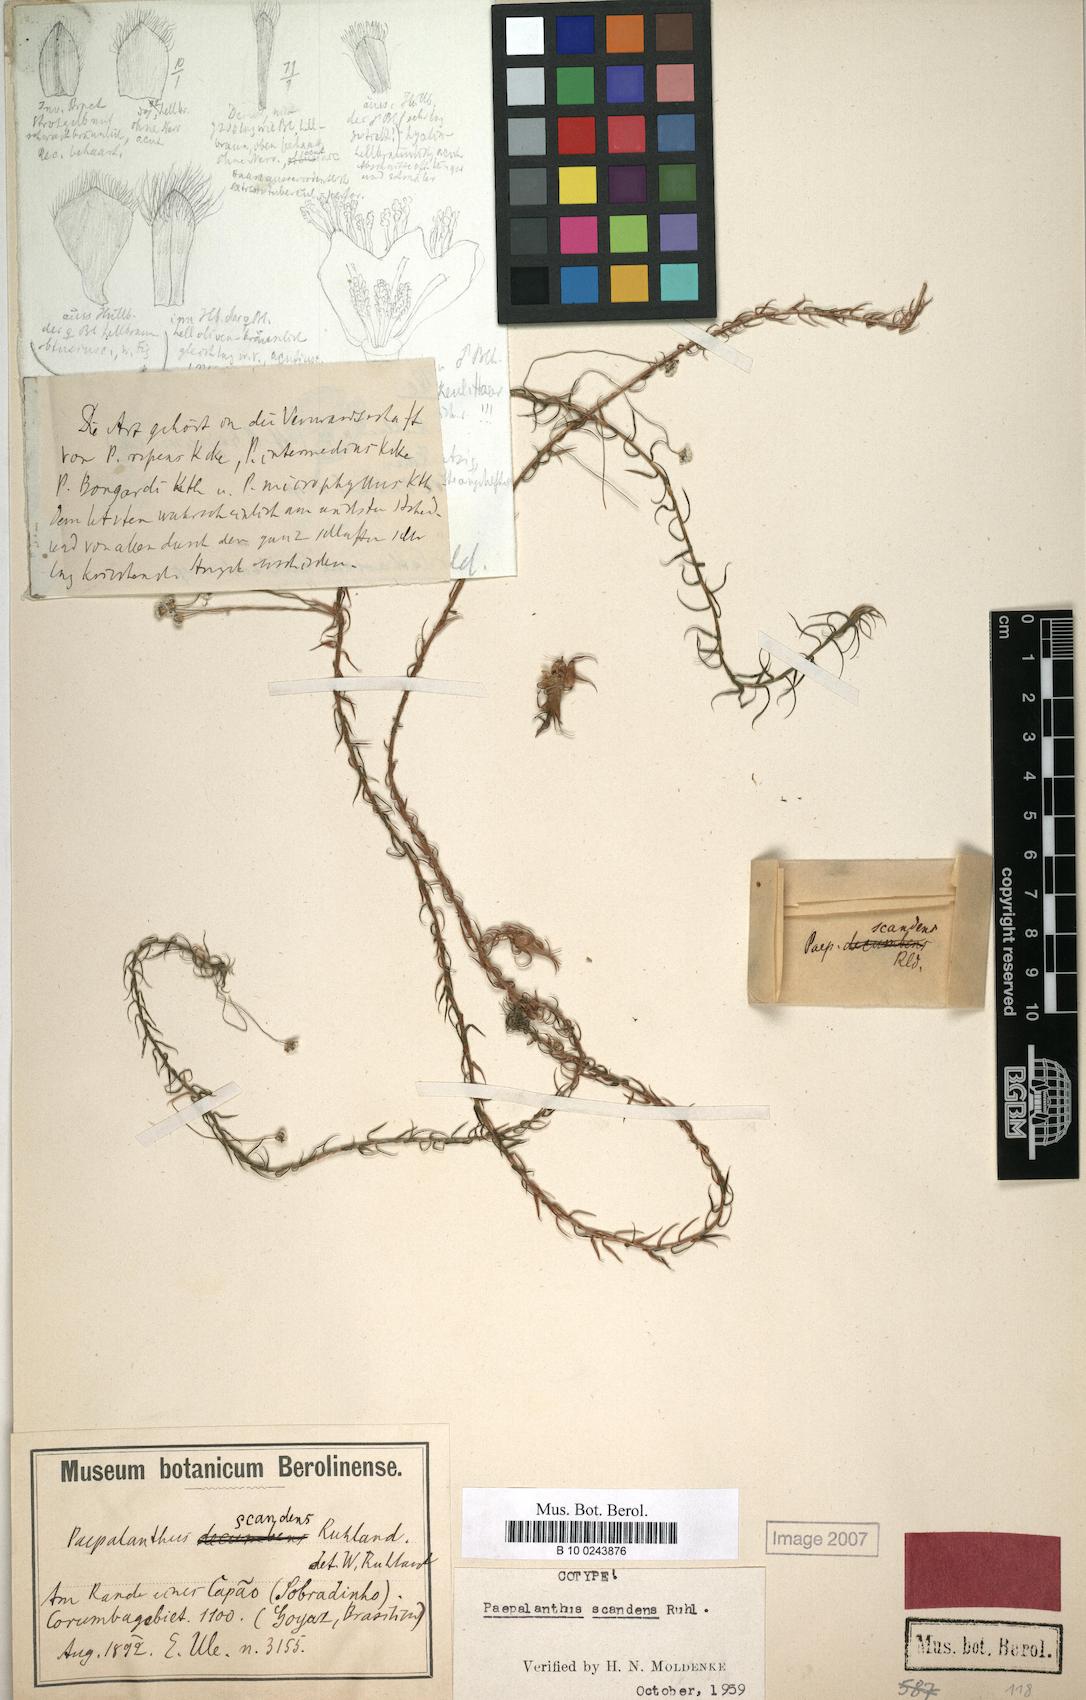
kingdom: Plantae
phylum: Tracheophyta
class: Liliopsida
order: Poales
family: Eriocaulaceae
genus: Paepalanthus
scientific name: Paepalanthus scandens
